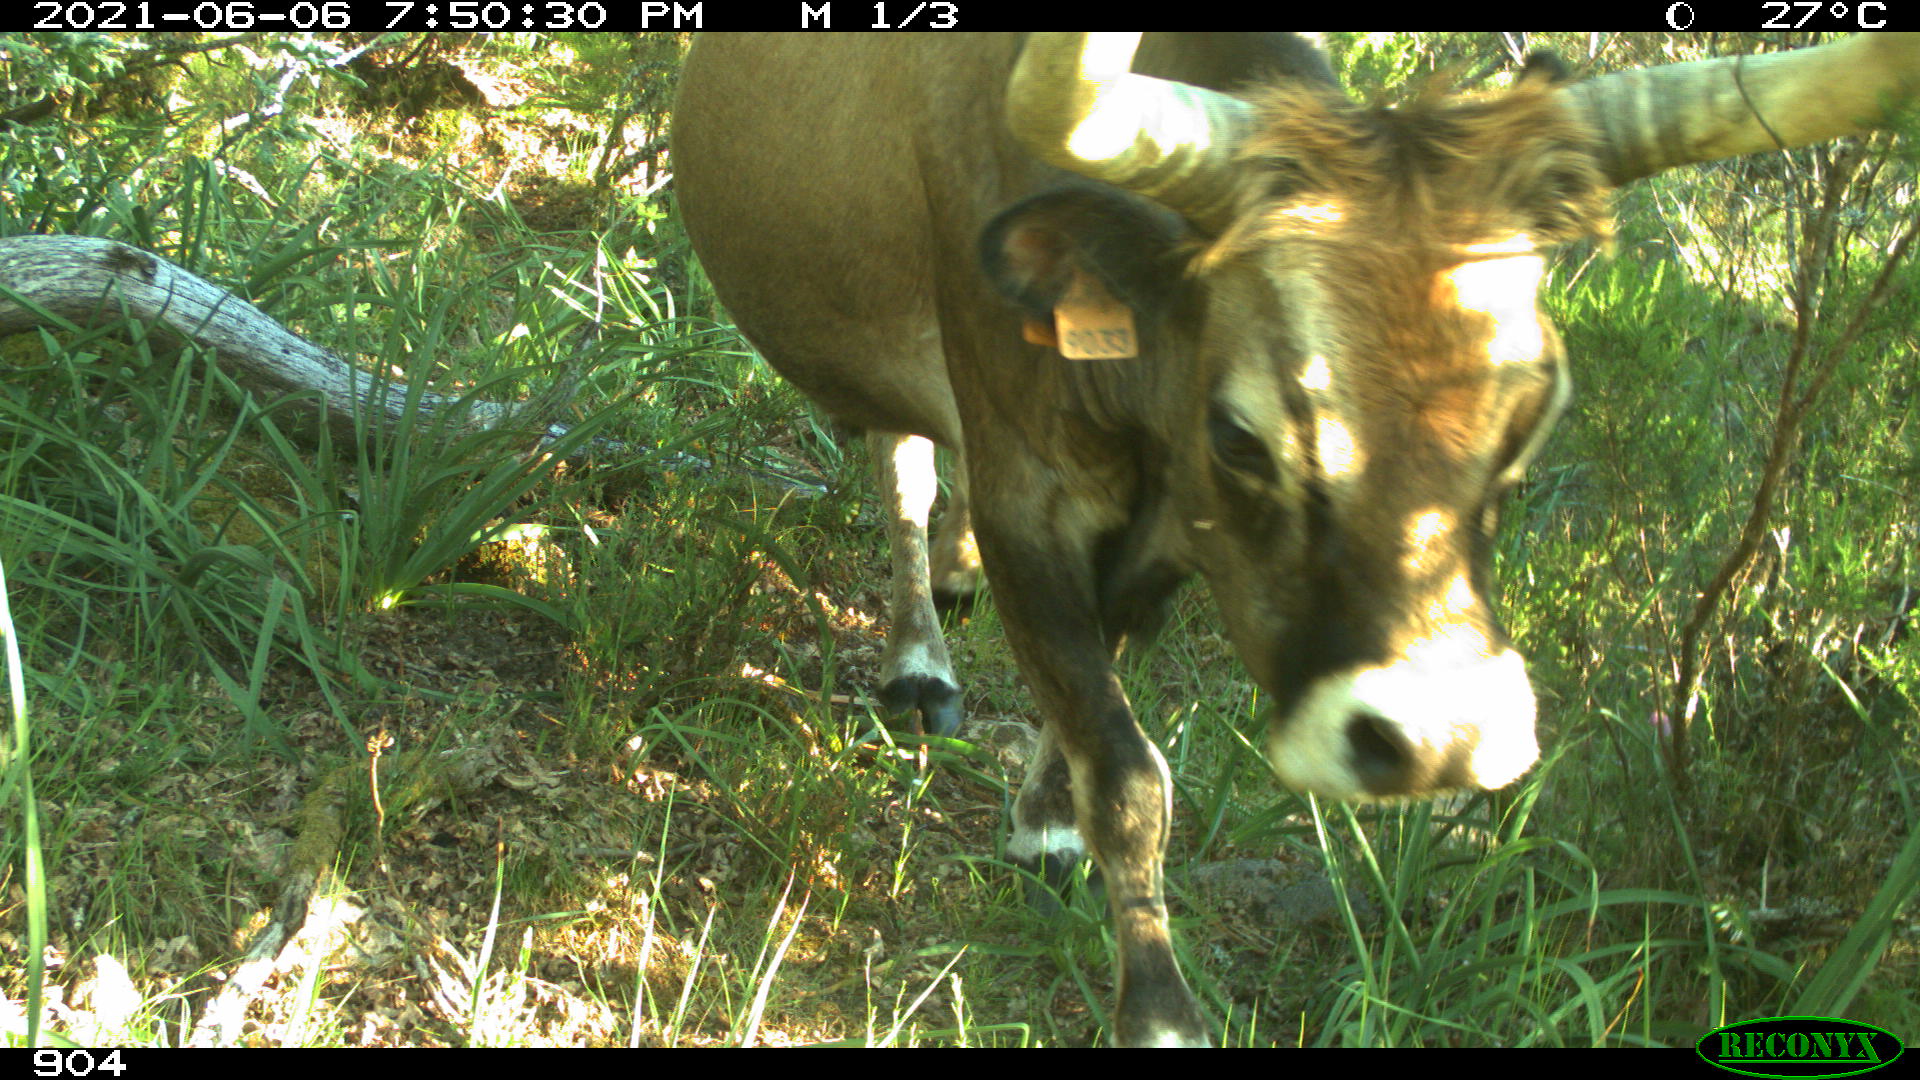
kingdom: Animalia
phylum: Chordata
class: Mammalia
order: Artiodactyla
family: Bovidae
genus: Bos
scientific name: Bos taurus
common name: Domesticated cattle
